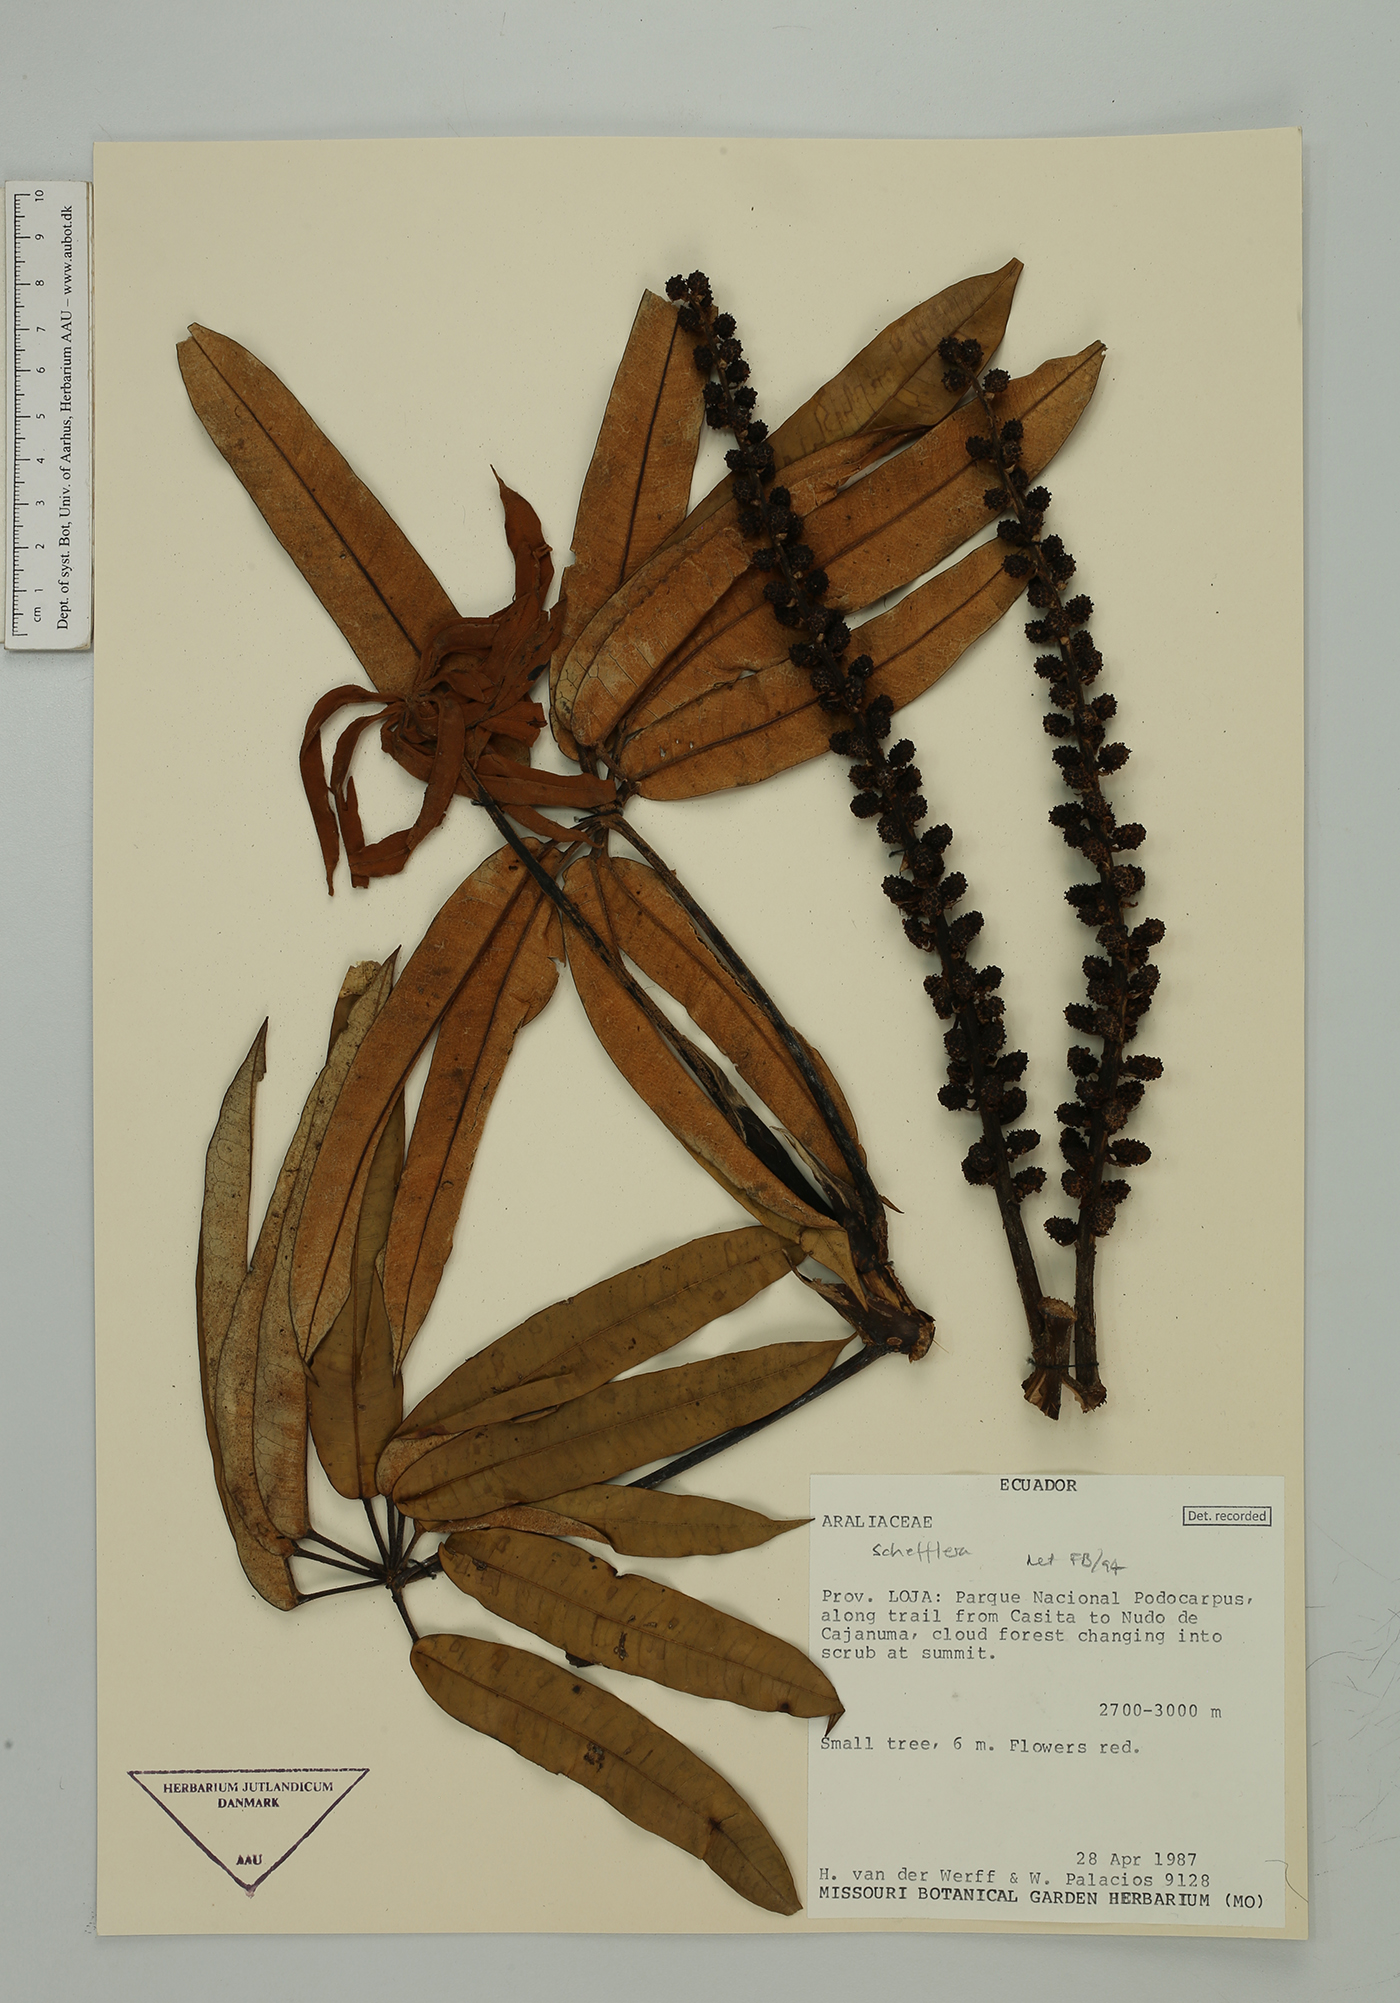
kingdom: Plantae
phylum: Tracheophyta
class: Magnoliopsida
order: Apiales
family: Araliaceae
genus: Sciodaphyllum
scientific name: Sciodaphyllum
